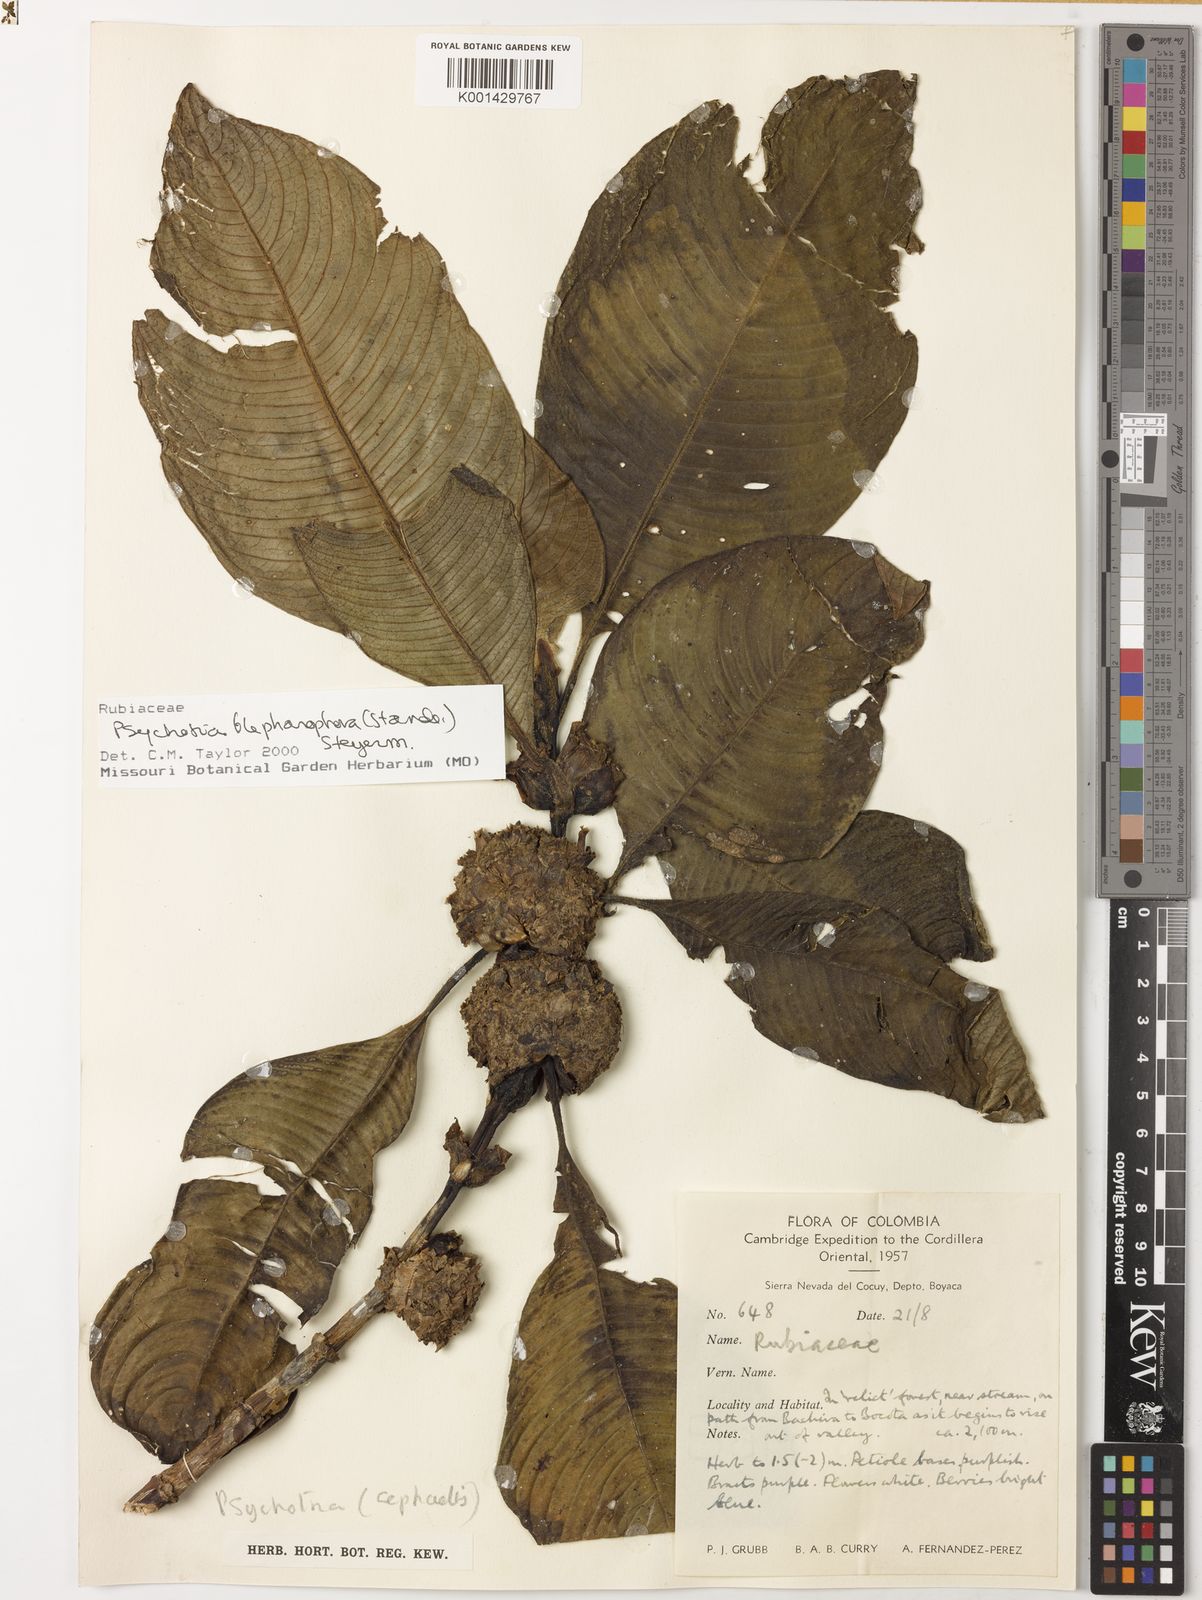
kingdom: Plantae
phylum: Tracheophyta
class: Magnoliopsida
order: Gentianales
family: Rubiaceae
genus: Palicourea
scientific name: Palicourea blepharophora
